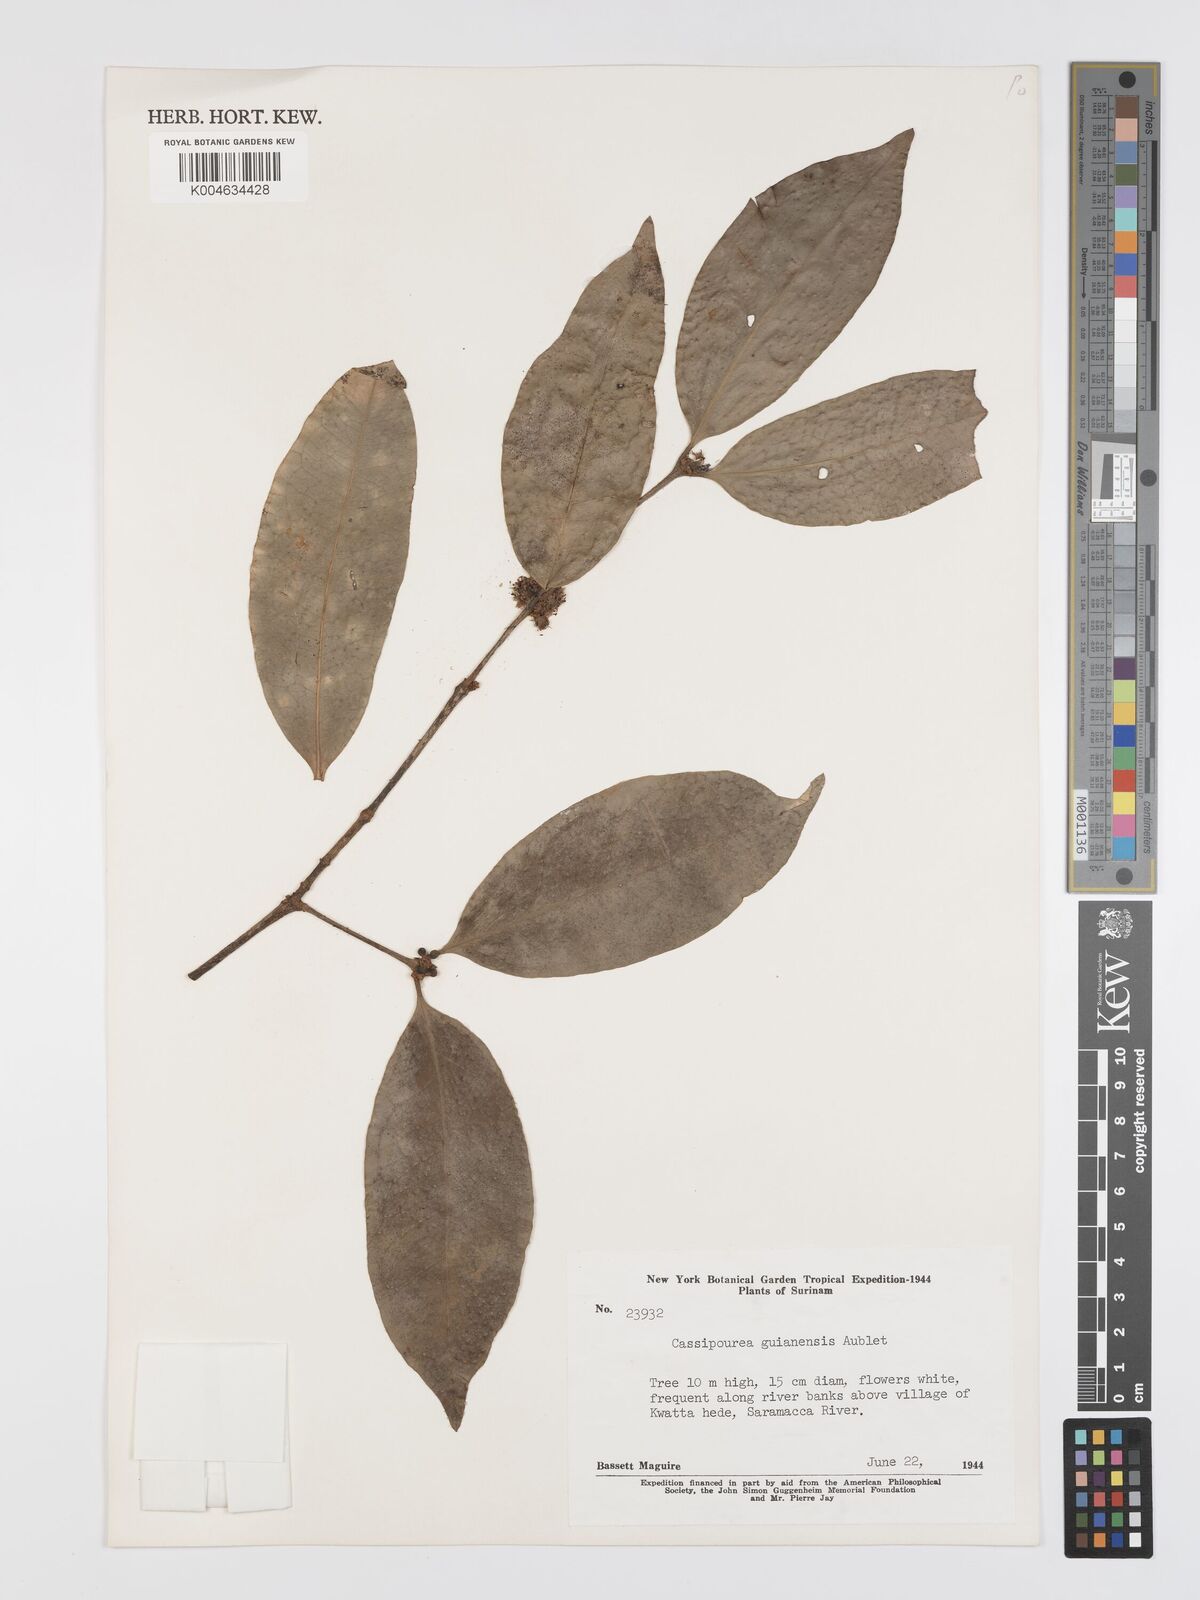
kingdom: Plantae
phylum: Tracheophyta
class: Magnoliopsida
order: Malpighiales
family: Rhizophoraceae
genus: Cassipourea
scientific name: Cassipourea guianensis
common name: Bastard waterwood
